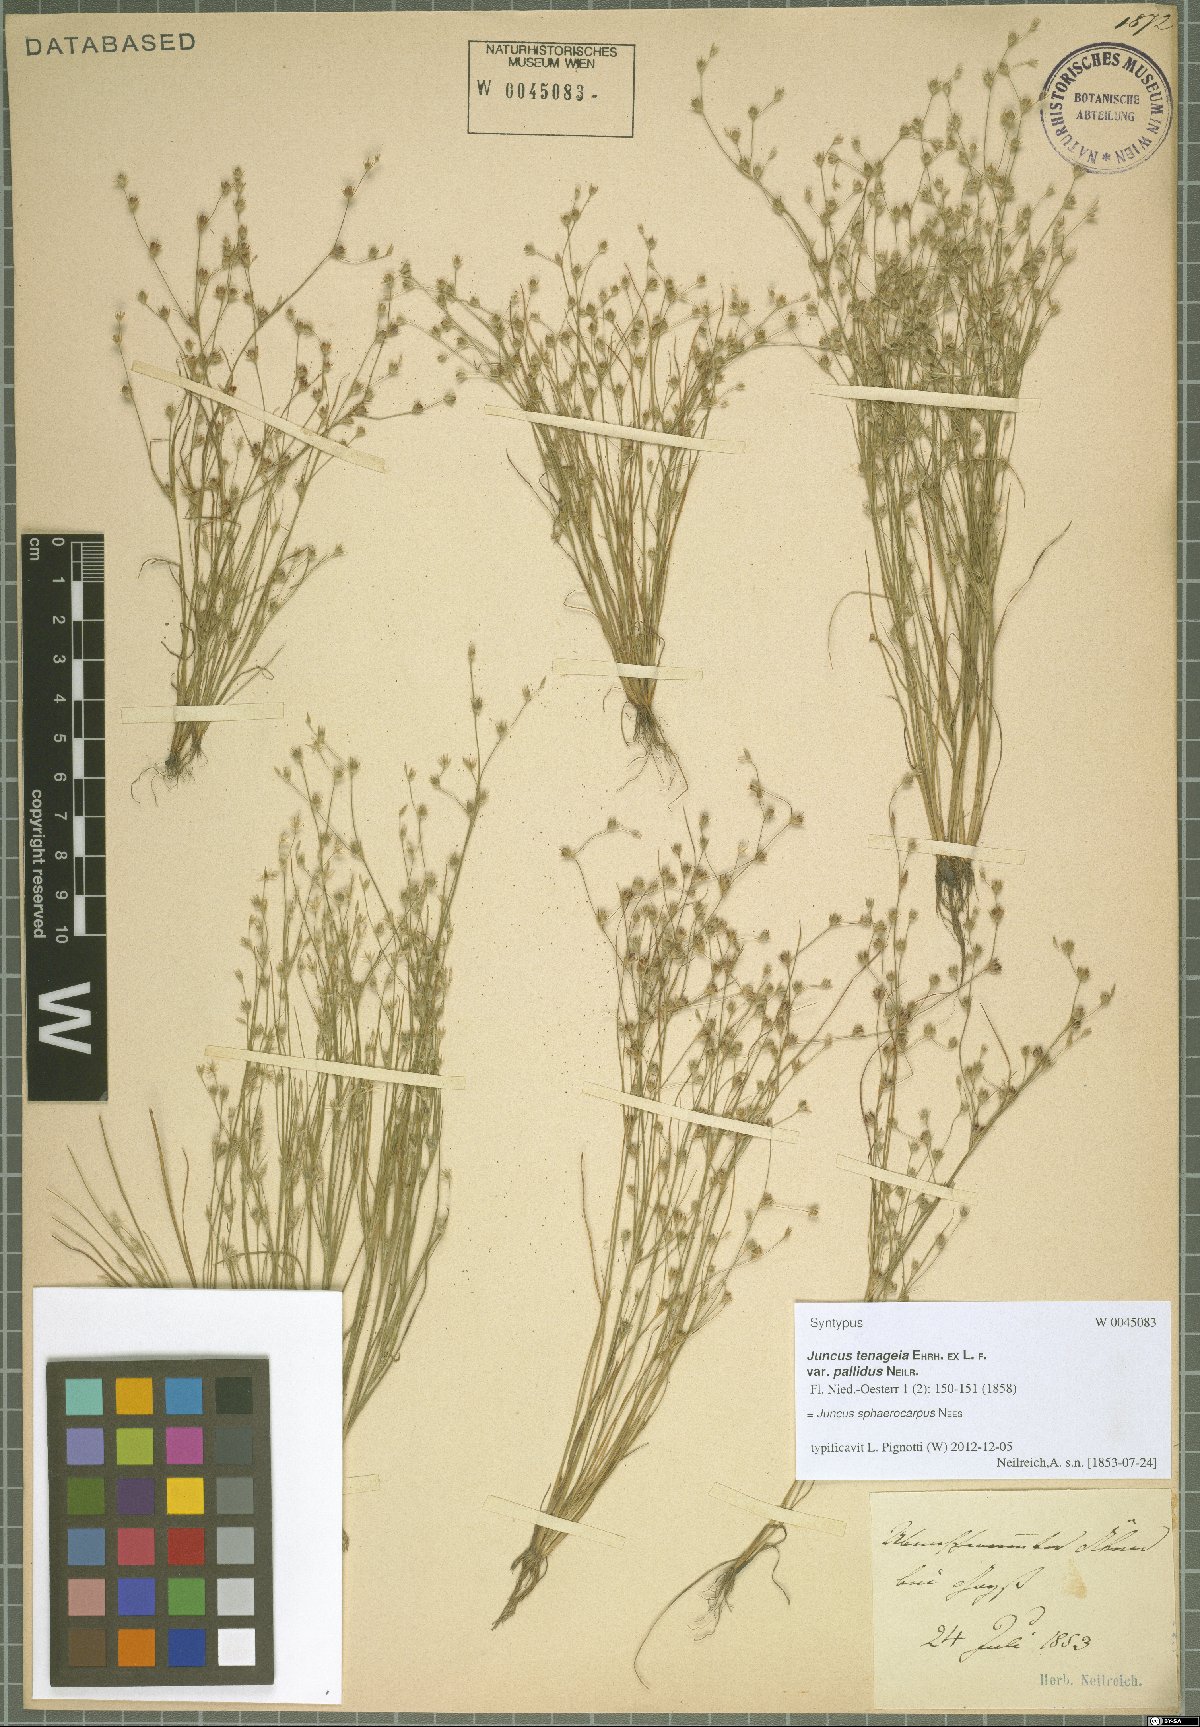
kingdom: Plantae
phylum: Tracheophyta
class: Liliopsida
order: Poales
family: Juncaceae
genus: Juncus
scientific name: Juncus sphaerocarpus
